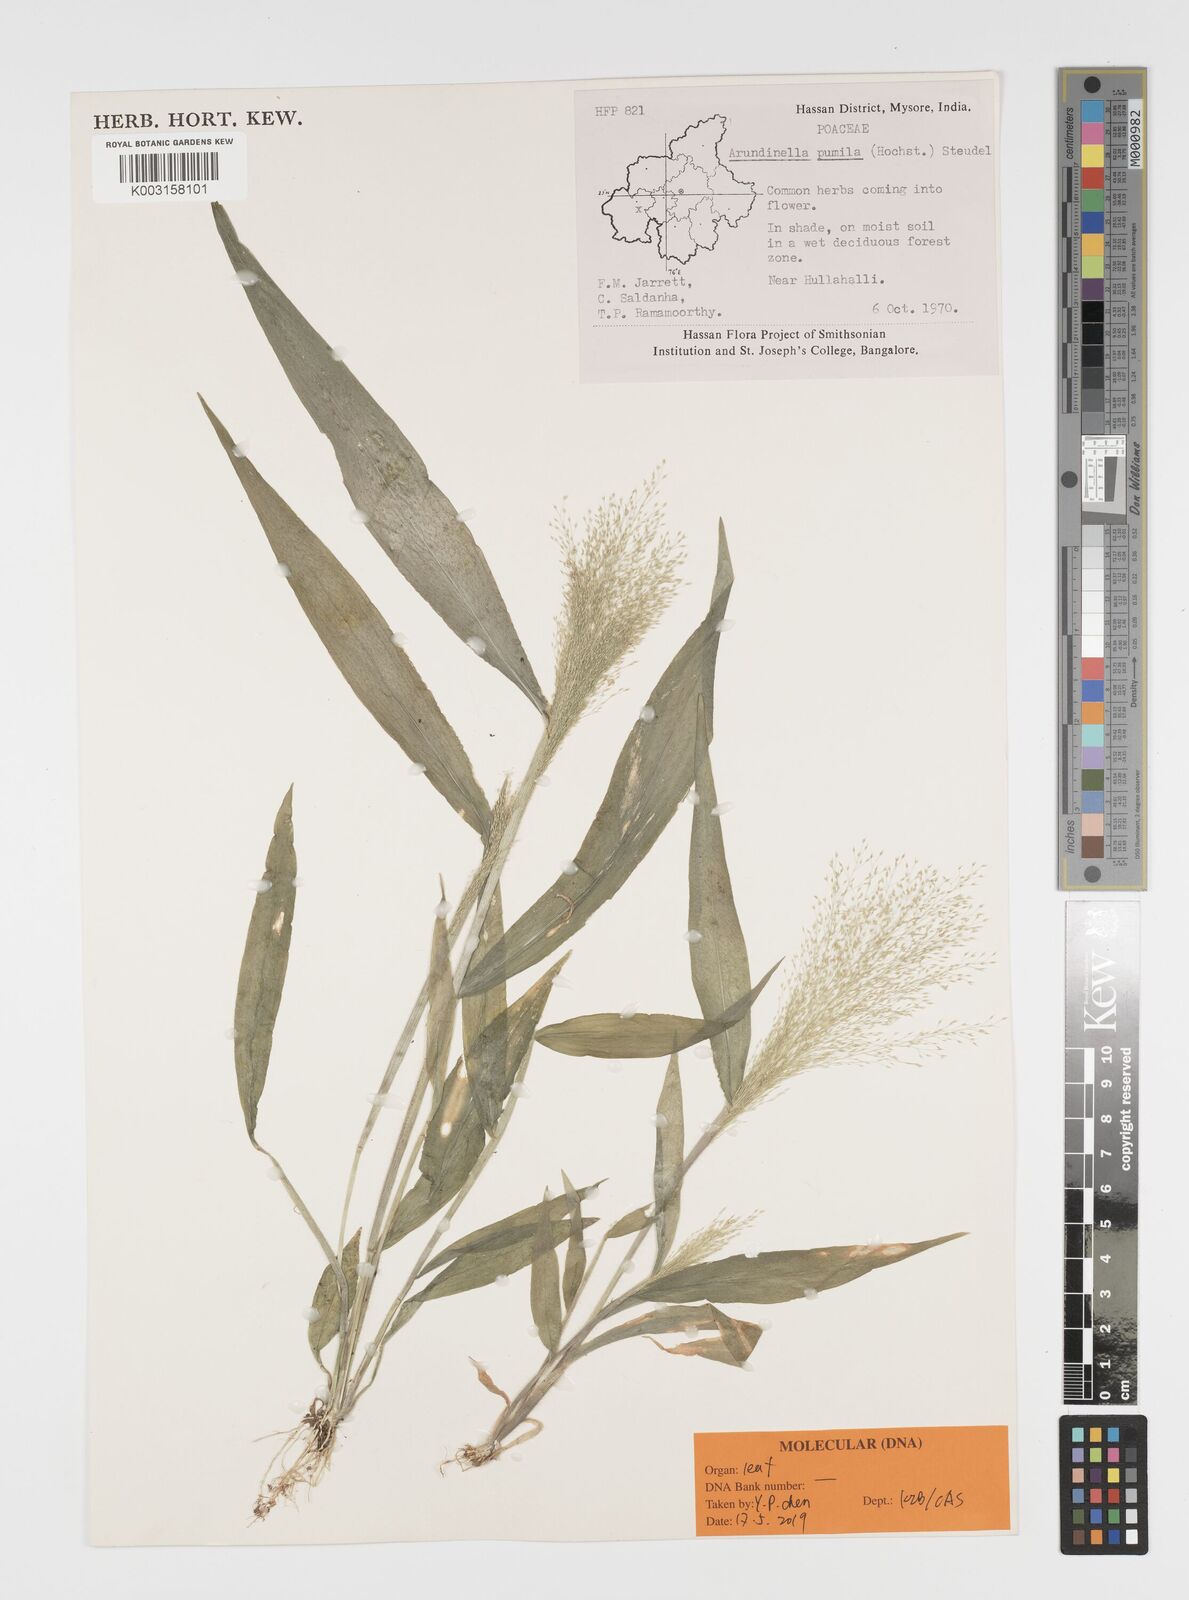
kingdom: Plantae
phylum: Tracheophyta
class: Liliopsida
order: Poales
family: Poaceae
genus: Arundinella
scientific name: Arundinella pumila
